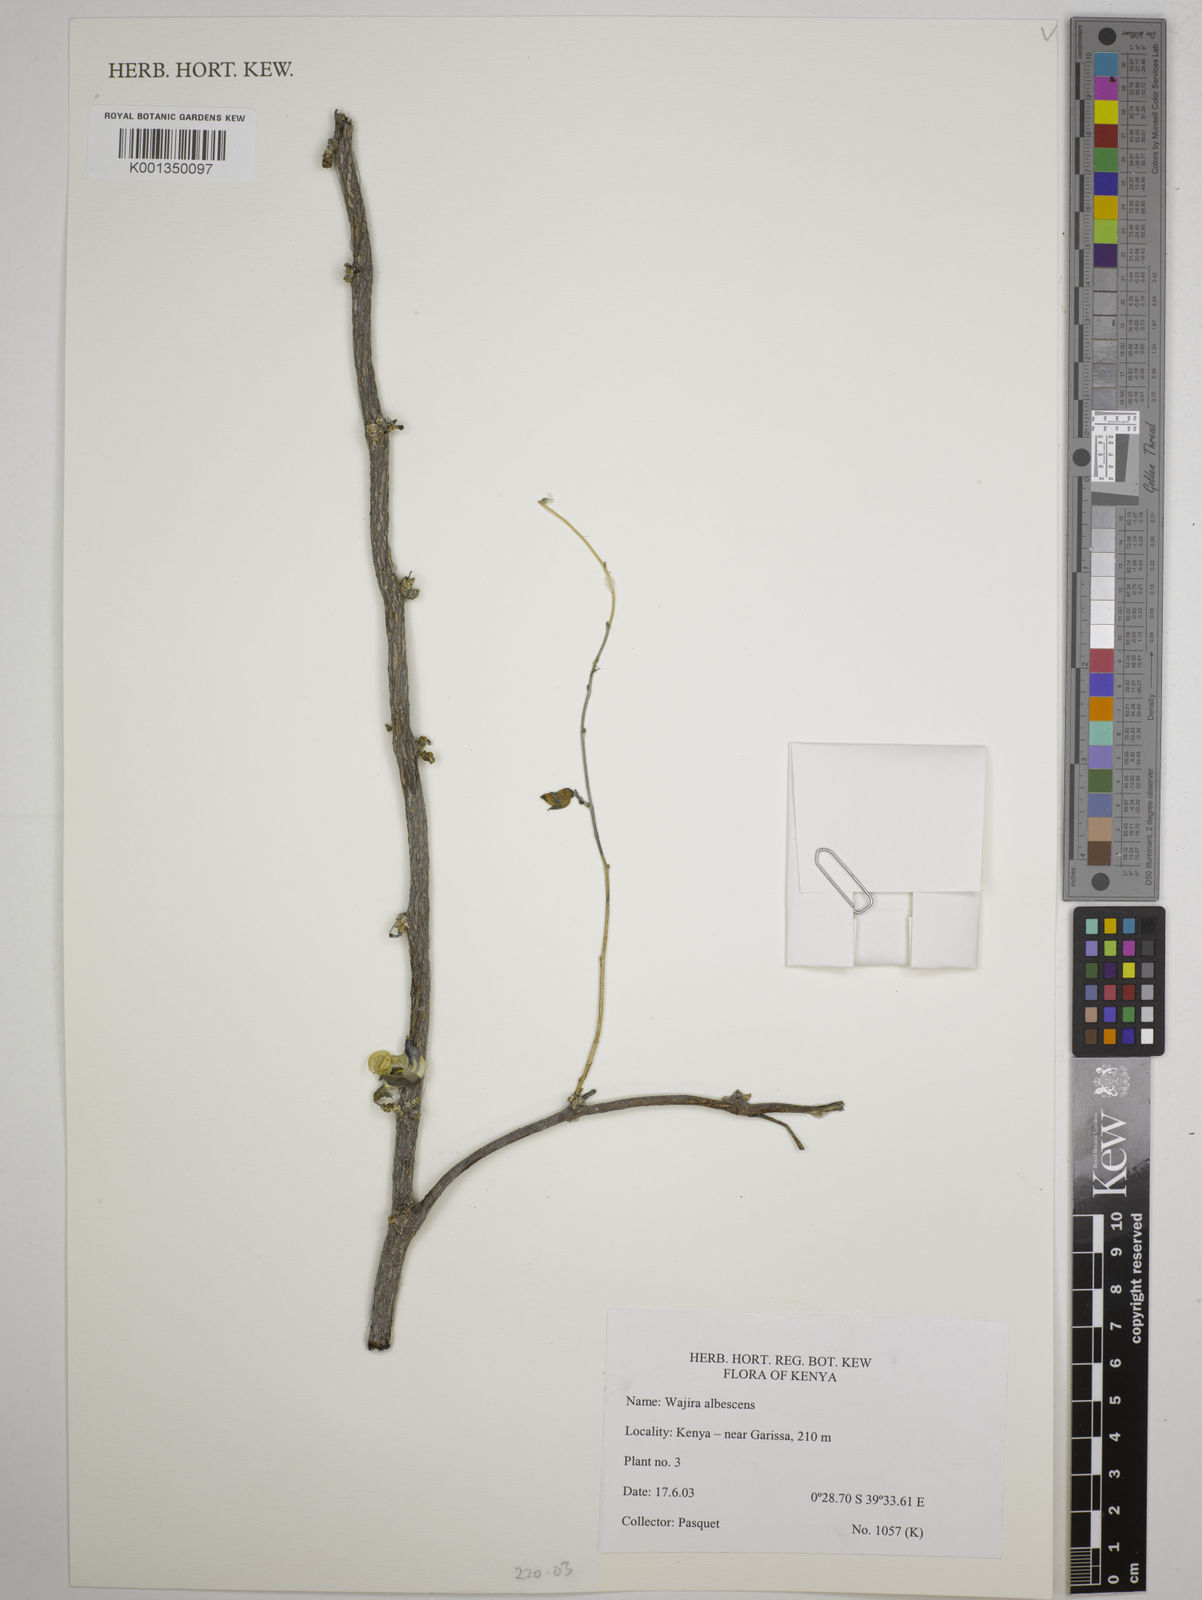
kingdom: Plantae
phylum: Tracheophyta
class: Magnoliopsida
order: Fabales
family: Fabaceae
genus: Wajira
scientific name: Wajira albescens
